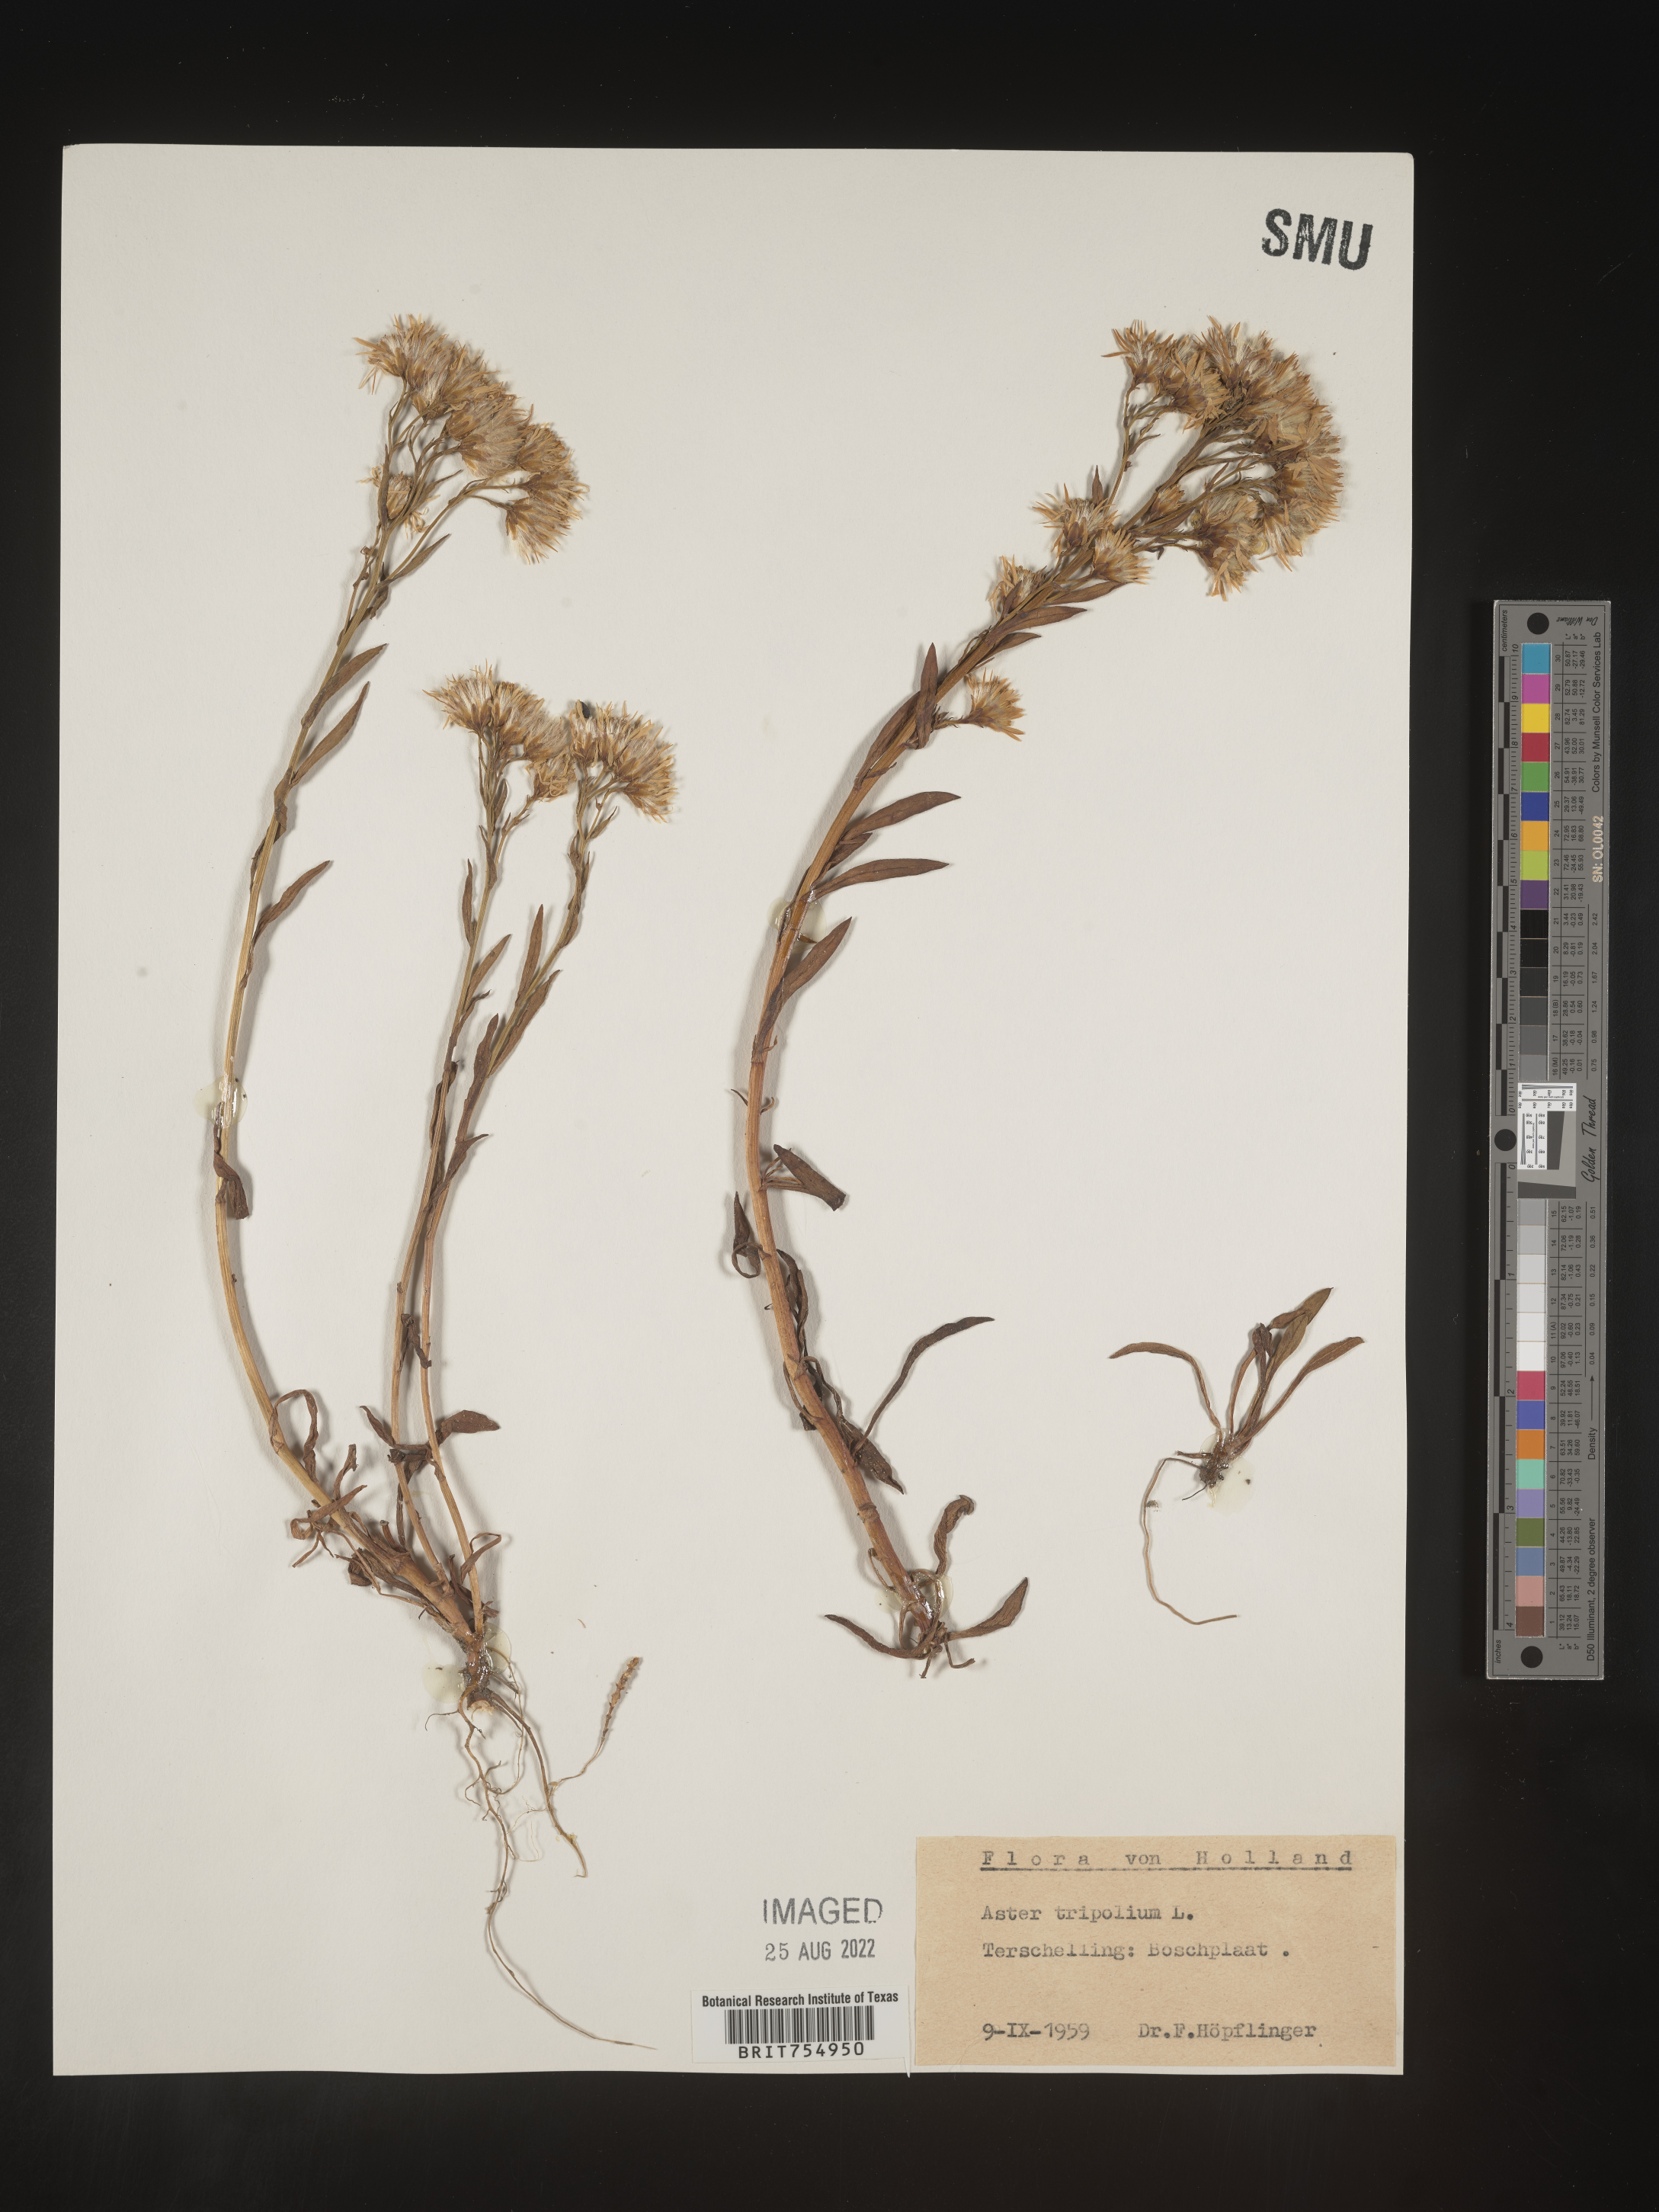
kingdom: Plantae
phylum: Tracheophyta
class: Magnoliopsida
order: Asterales
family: Asteraceae
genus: Symphyotrichum
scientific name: Symphyotrichum
